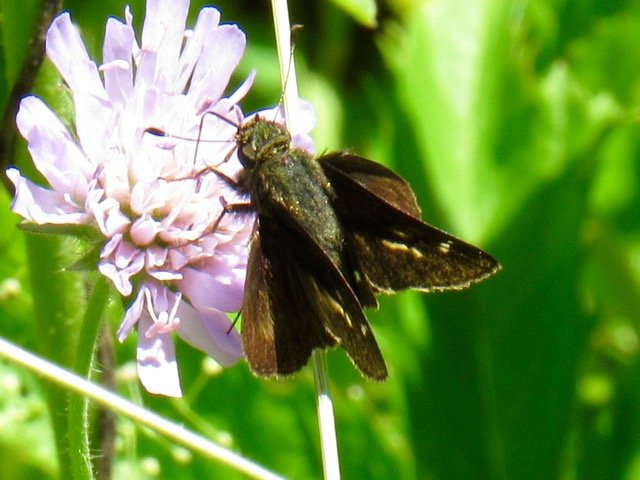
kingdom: Animalia
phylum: Arthropoda
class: Insecta
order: Lepidoptera
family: Hesperiidae
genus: Vernia
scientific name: Vernia verna
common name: Little Glassywing
